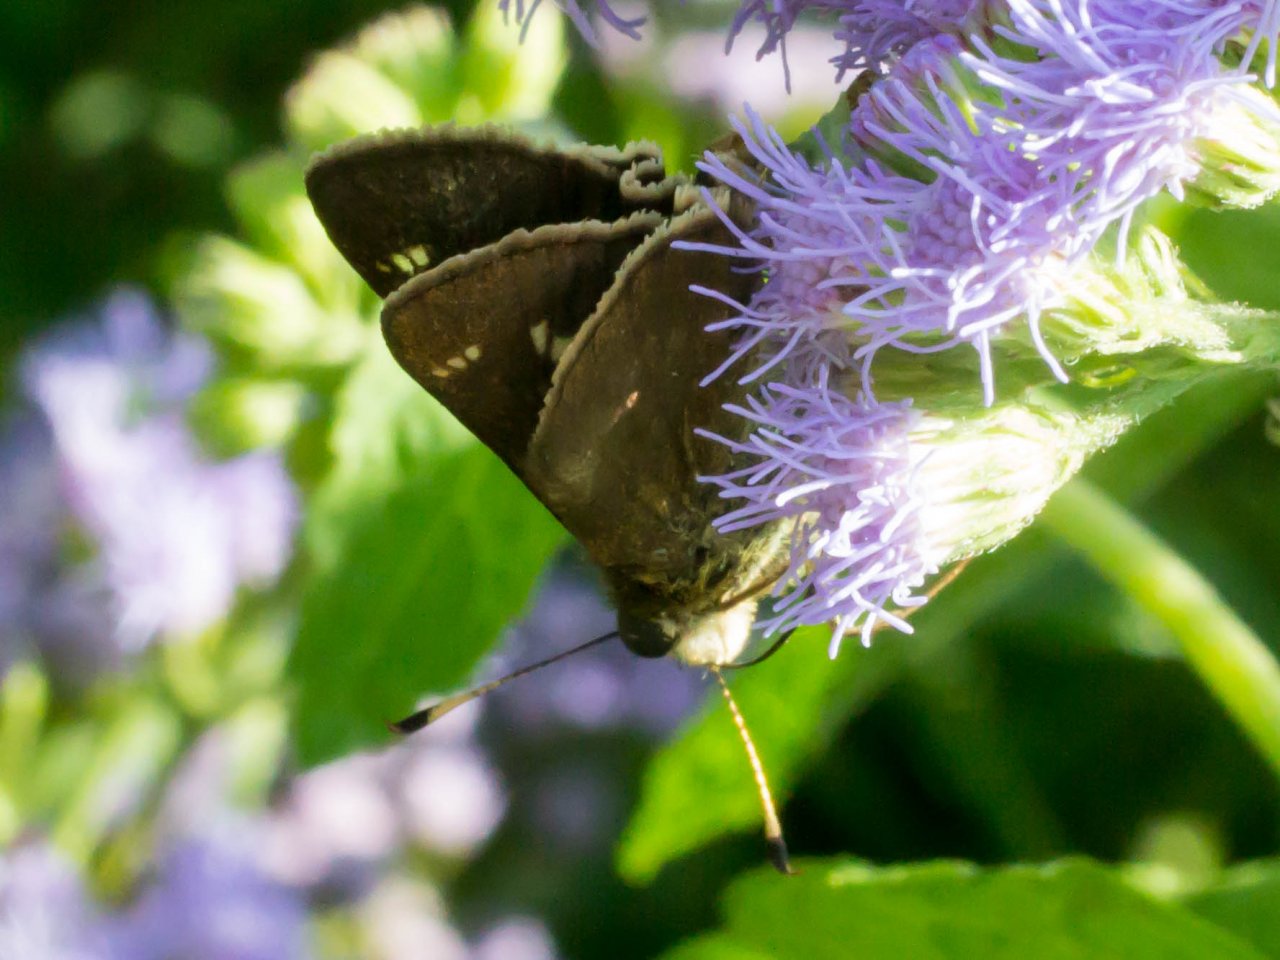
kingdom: Animalia
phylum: Arthropoda
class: Insecta
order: Lepidoptera
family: Hesperiidae
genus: Vernia
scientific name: Vernia verna
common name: Little Glassywing
